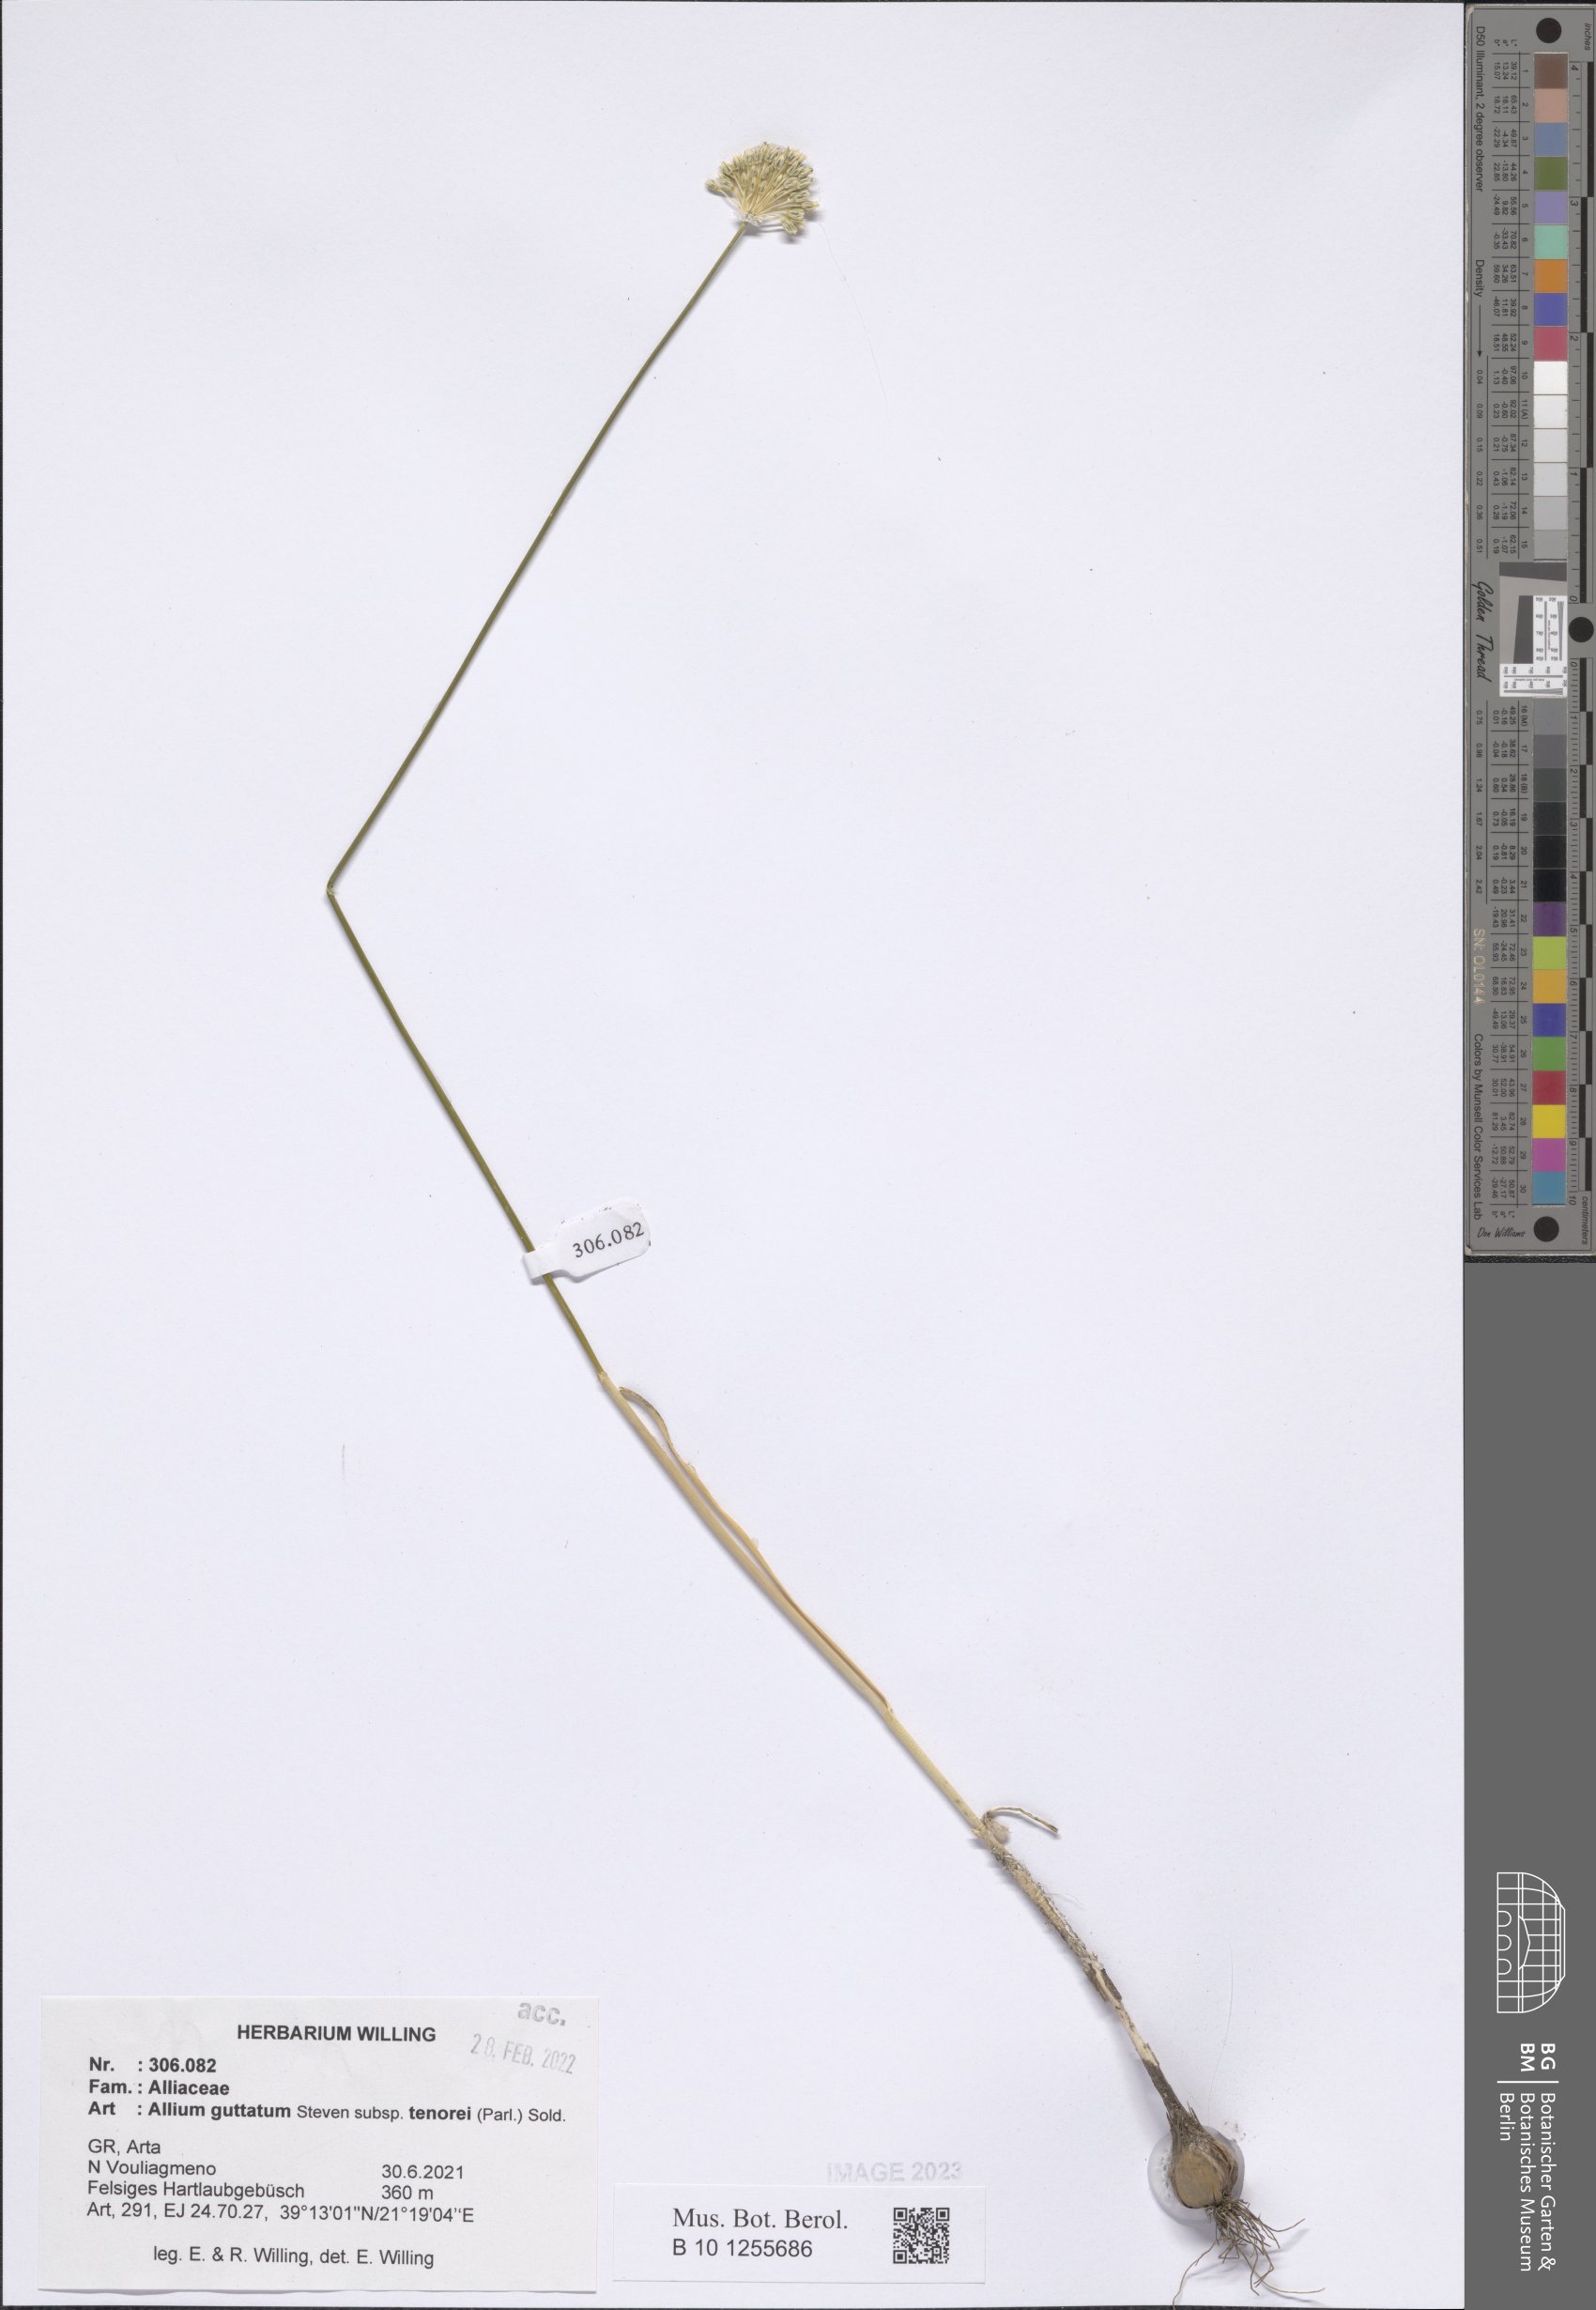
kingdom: Plantae
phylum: Tracheophyta
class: Liliopsida
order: Asparagales
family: Amaryllidaceae
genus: Allium
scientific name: Allium sardoum
